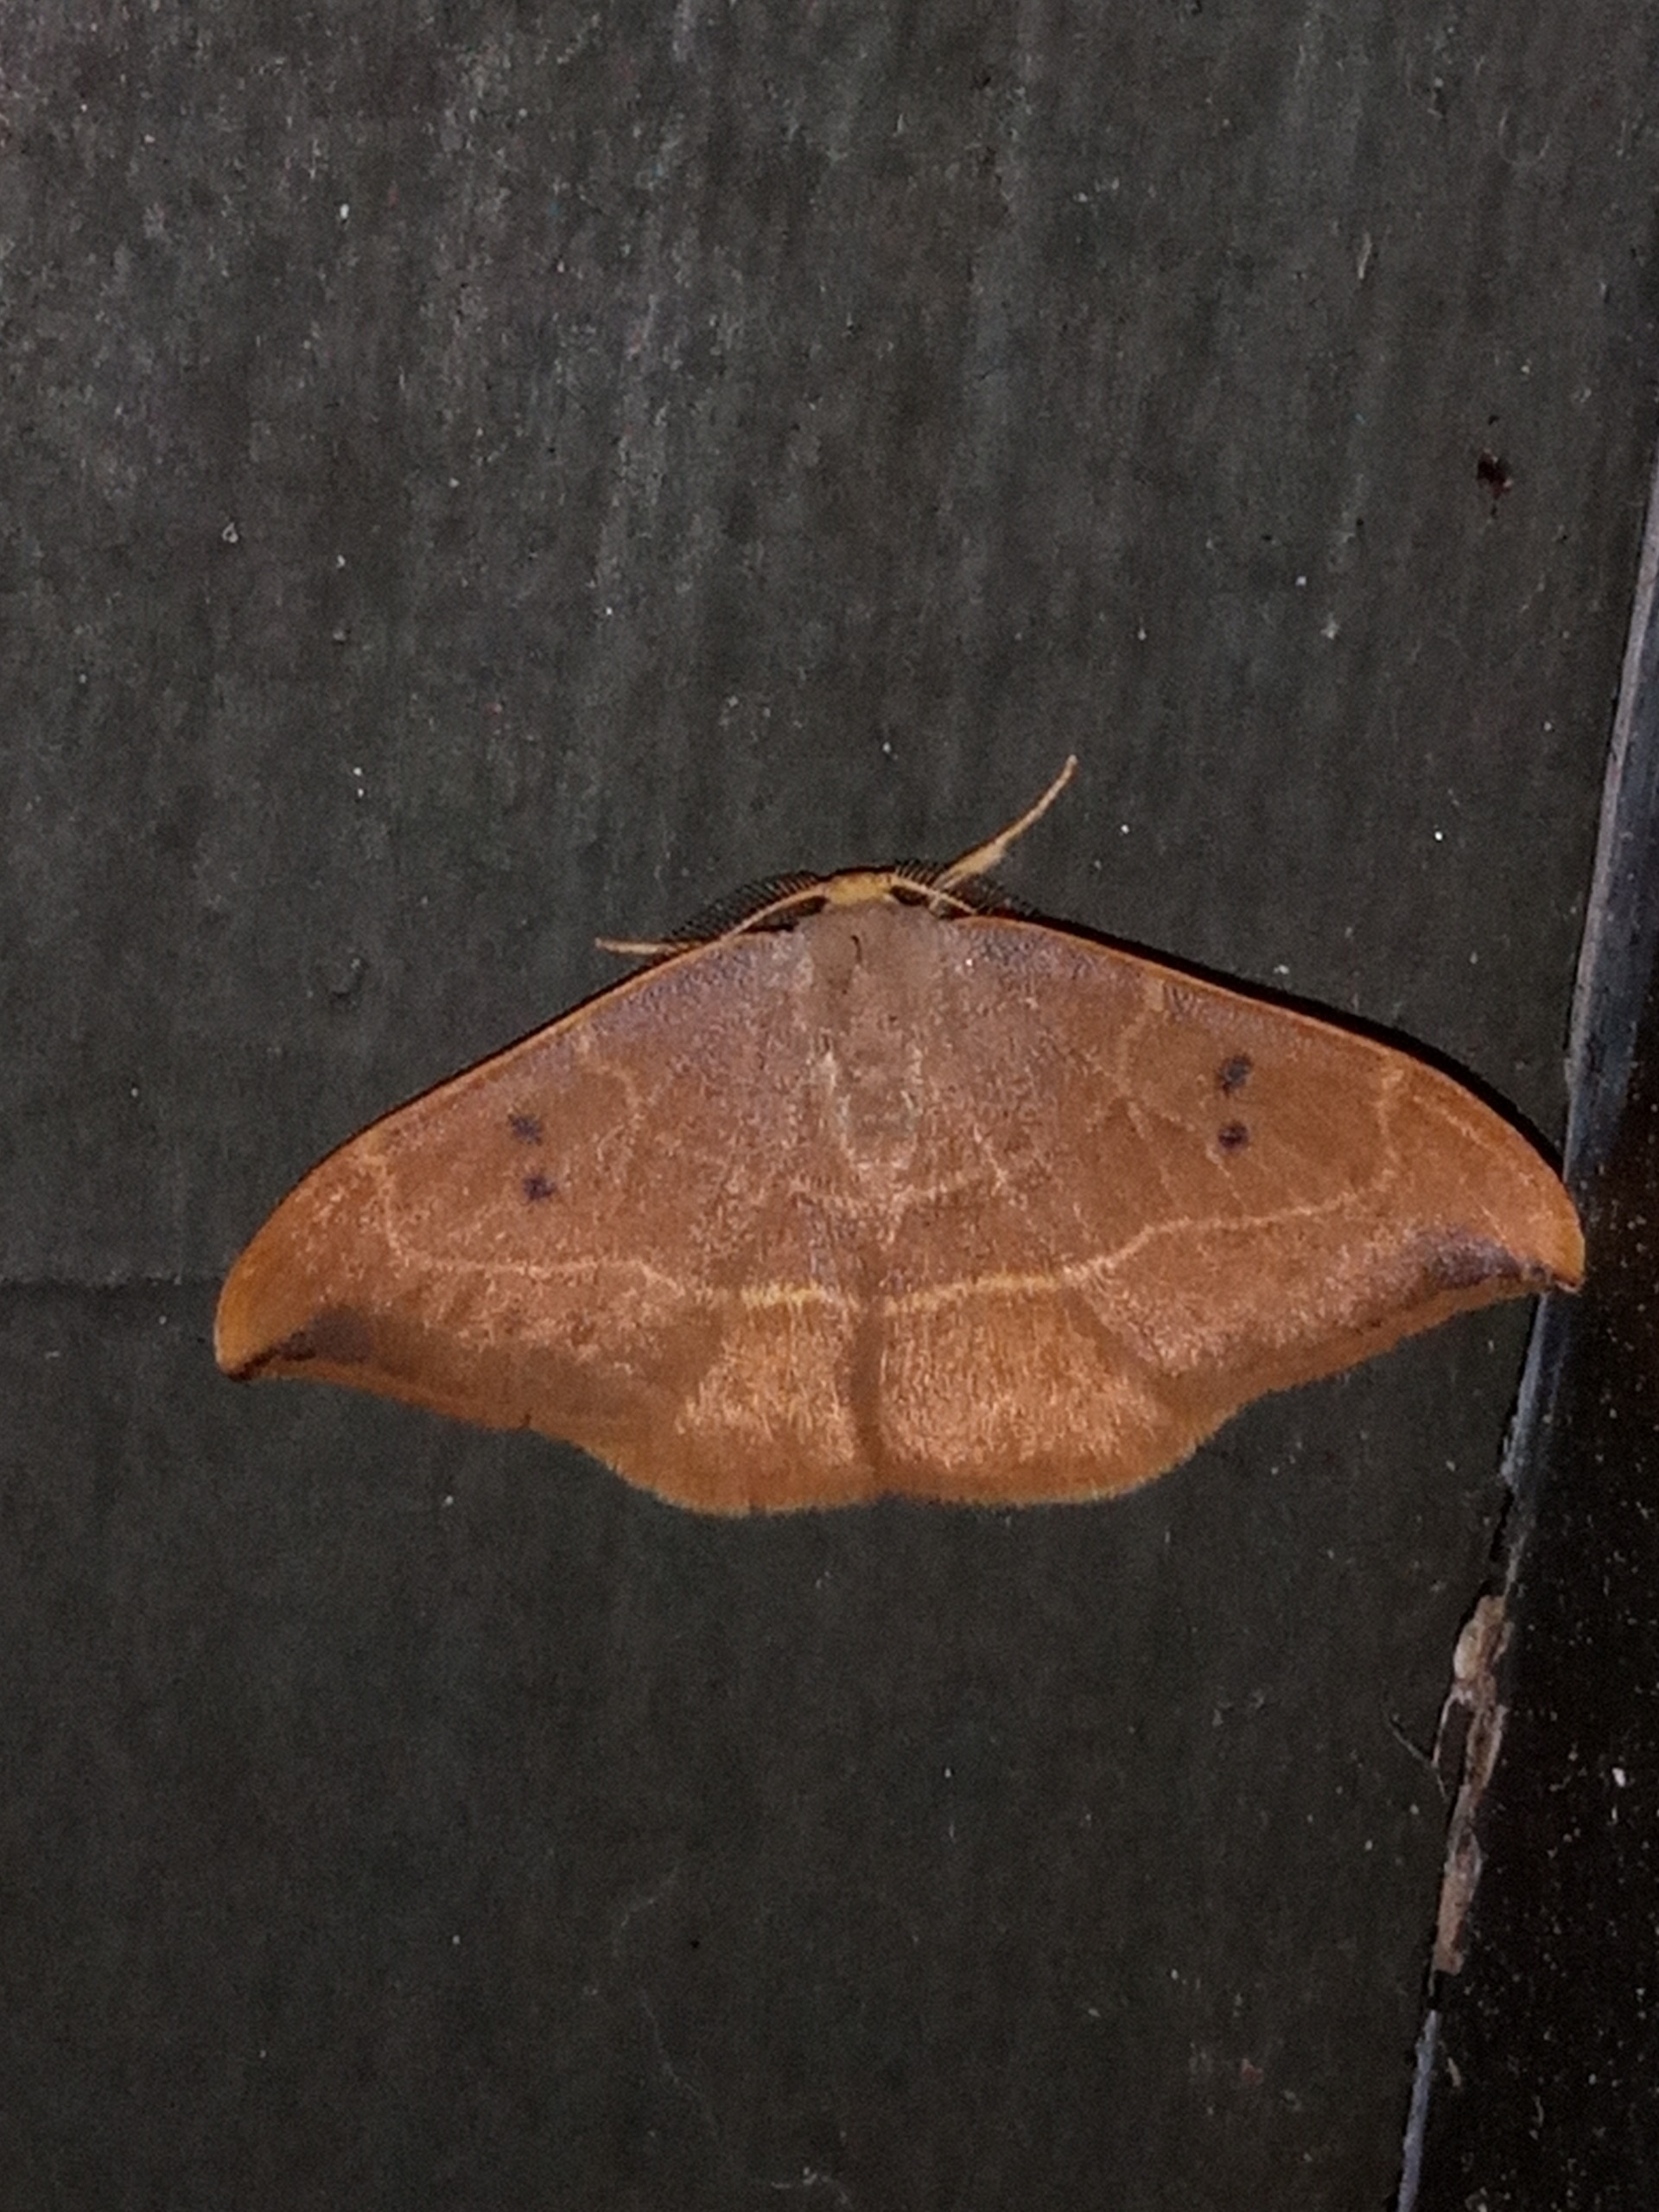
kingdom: Animalia
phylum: Arthropoda
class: Insecta
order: Lepidoptera
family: Drepanidae
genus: Watsonalla
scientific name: Watsonalla binaria
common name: Toplettet seglvinge
